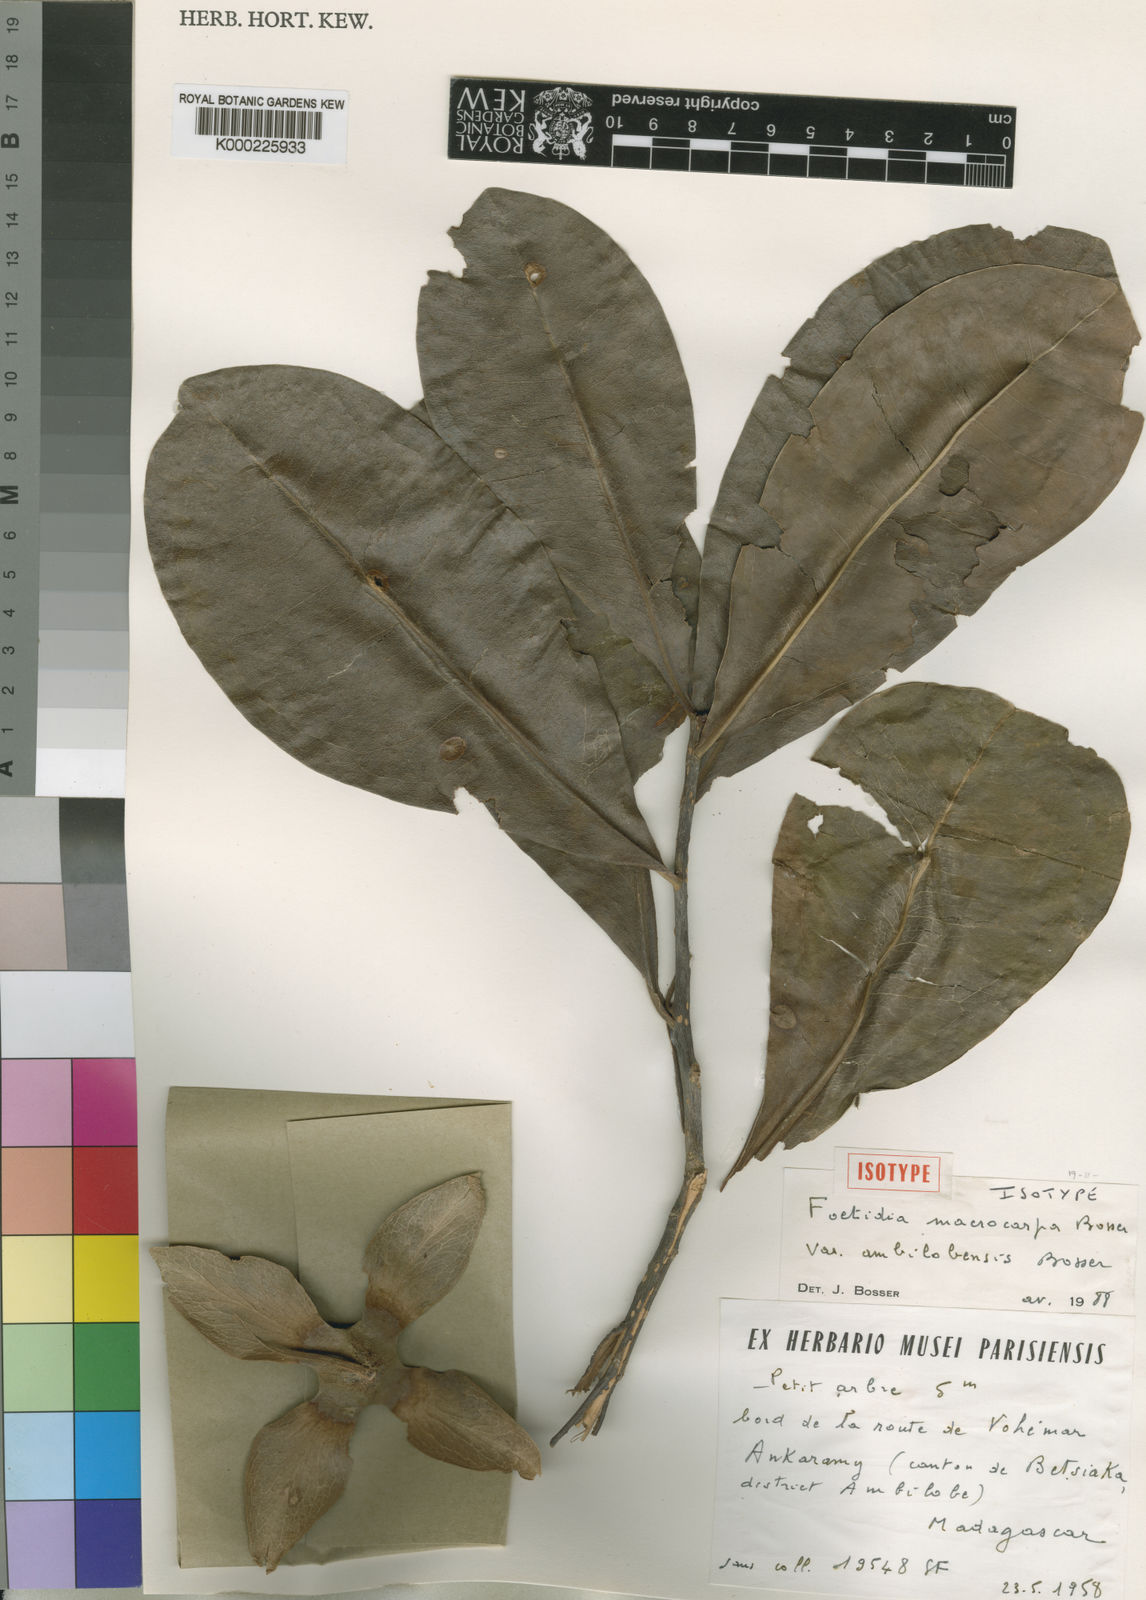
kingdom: Plantae
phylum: Tracheophyta
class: Magnoliopsida
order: Ericales
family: Lecythidaceae
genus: Foetidia
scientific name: Foetidia macrocarpa
